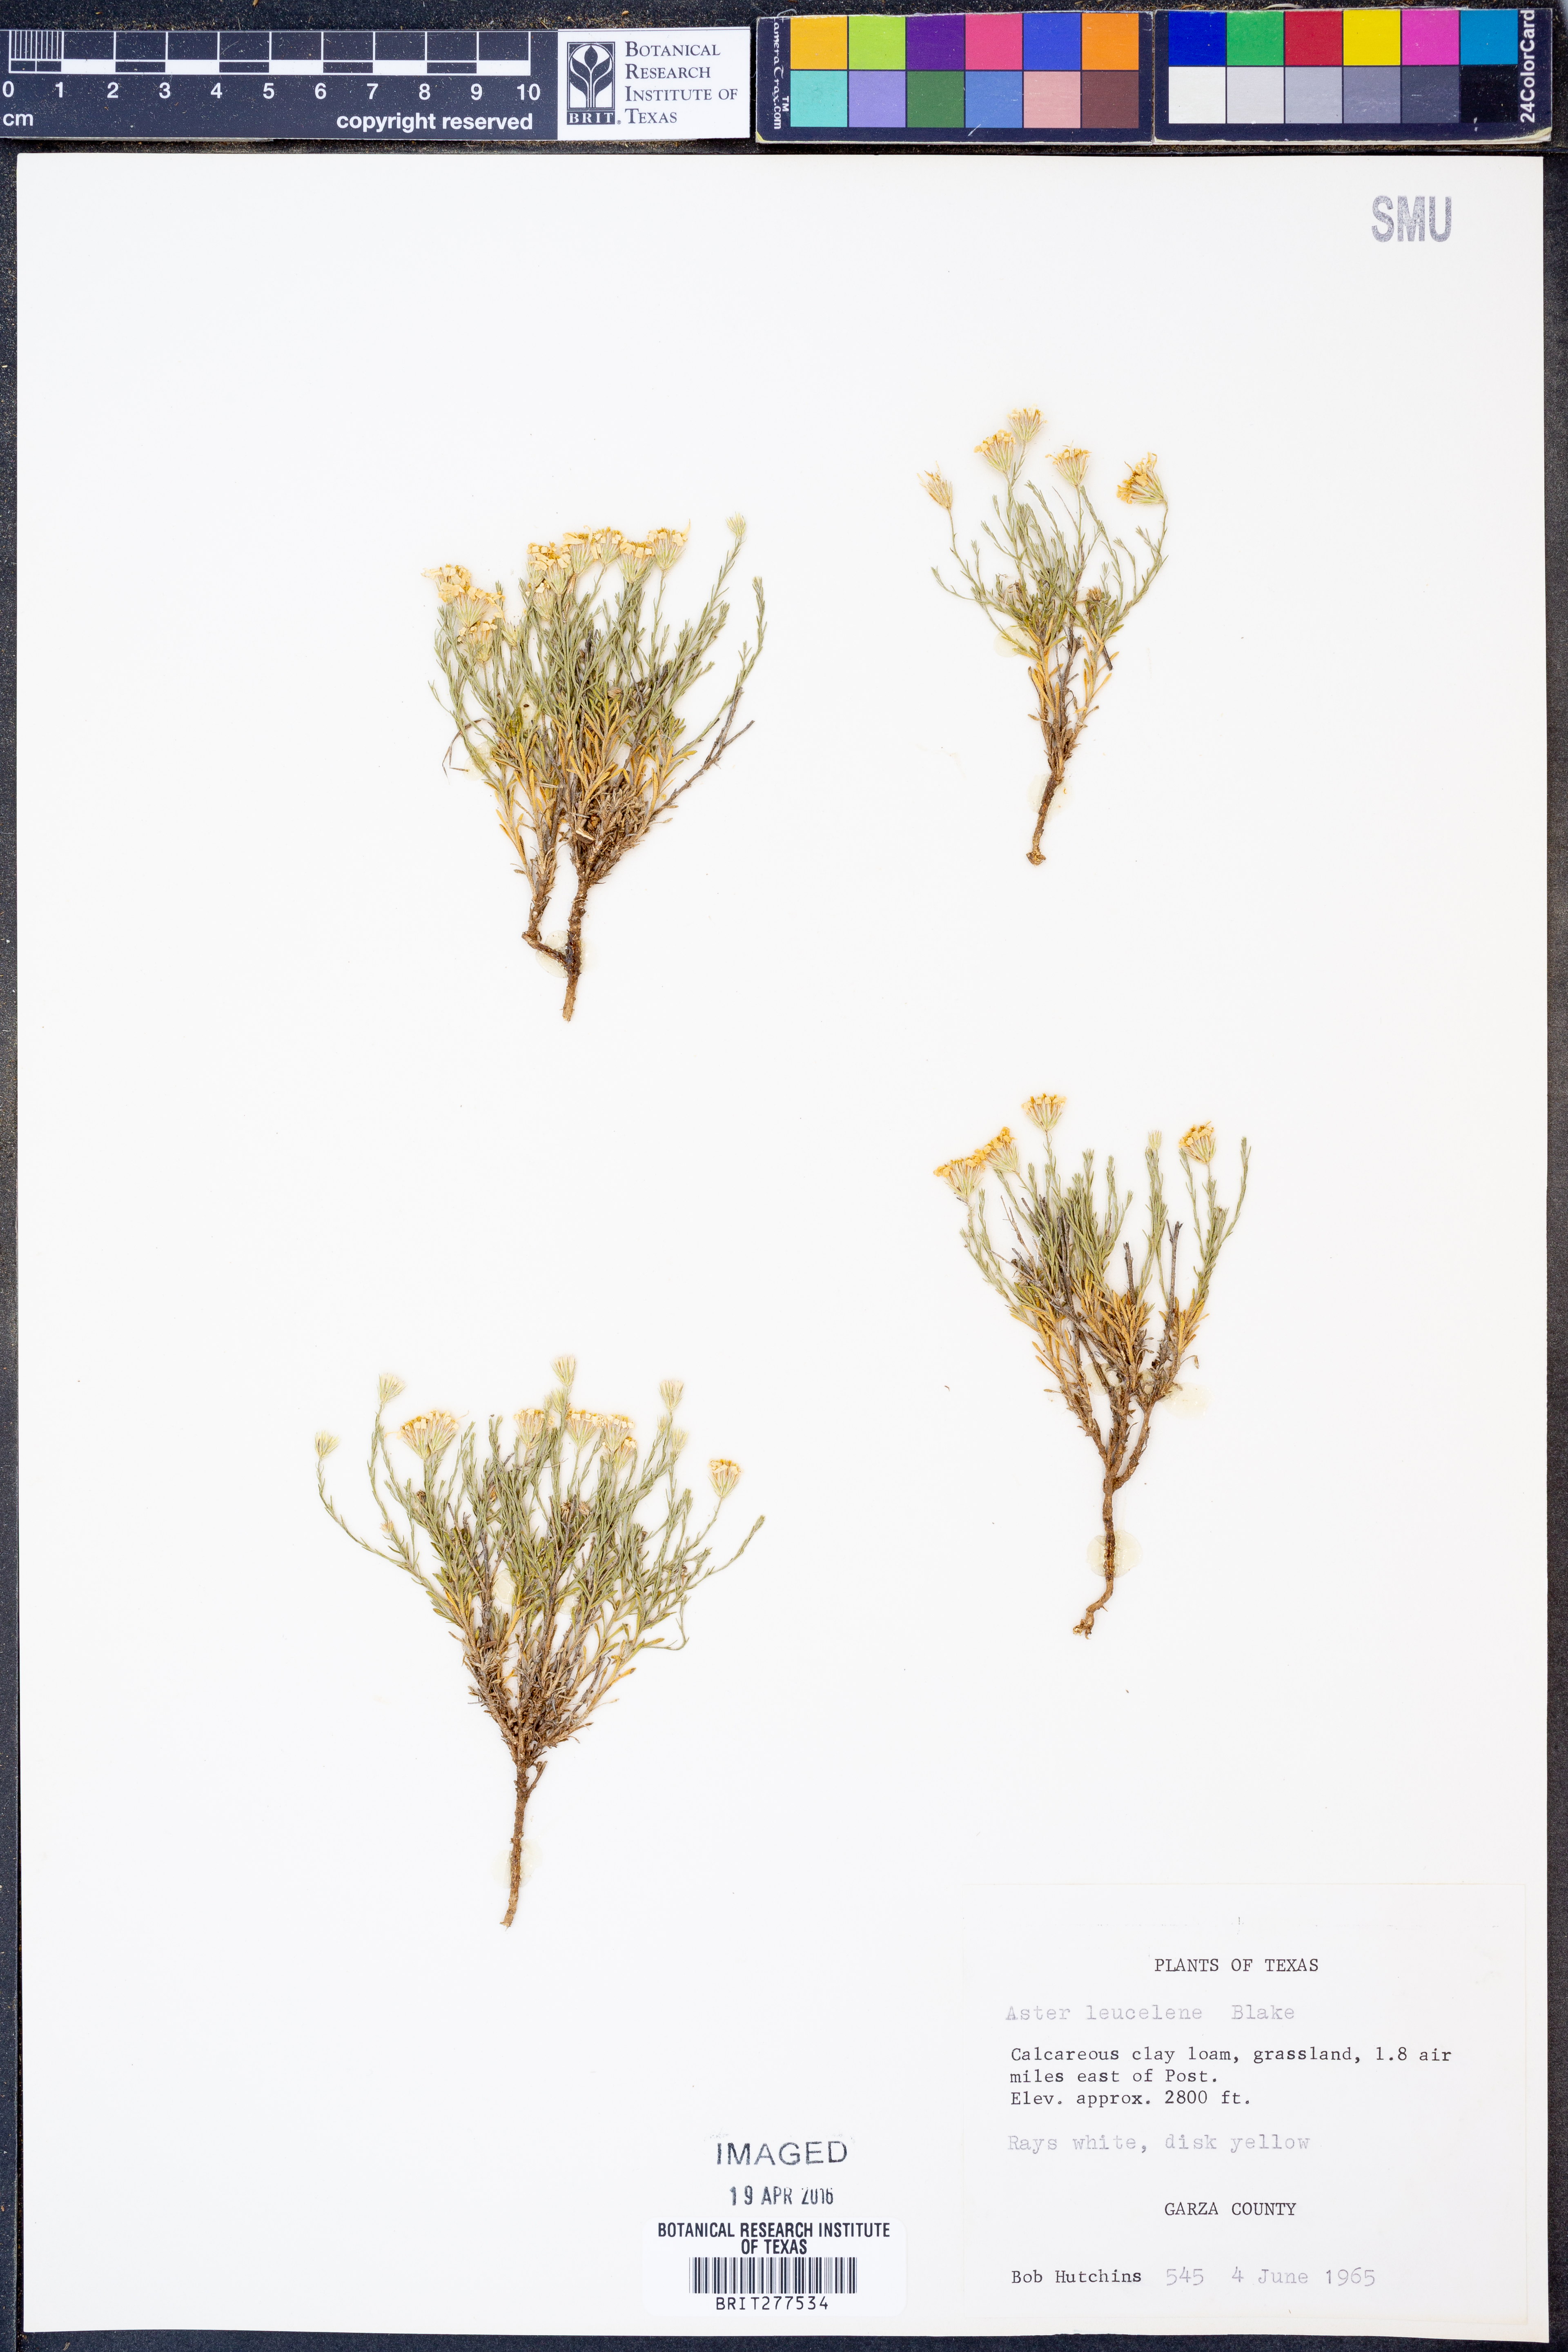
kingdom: Plantae
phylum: Tracheophyta
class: Magnoliopsida
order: Asterales
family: Asteraceae
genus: Chaetopappa
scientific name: Chaetopappa ericoides
